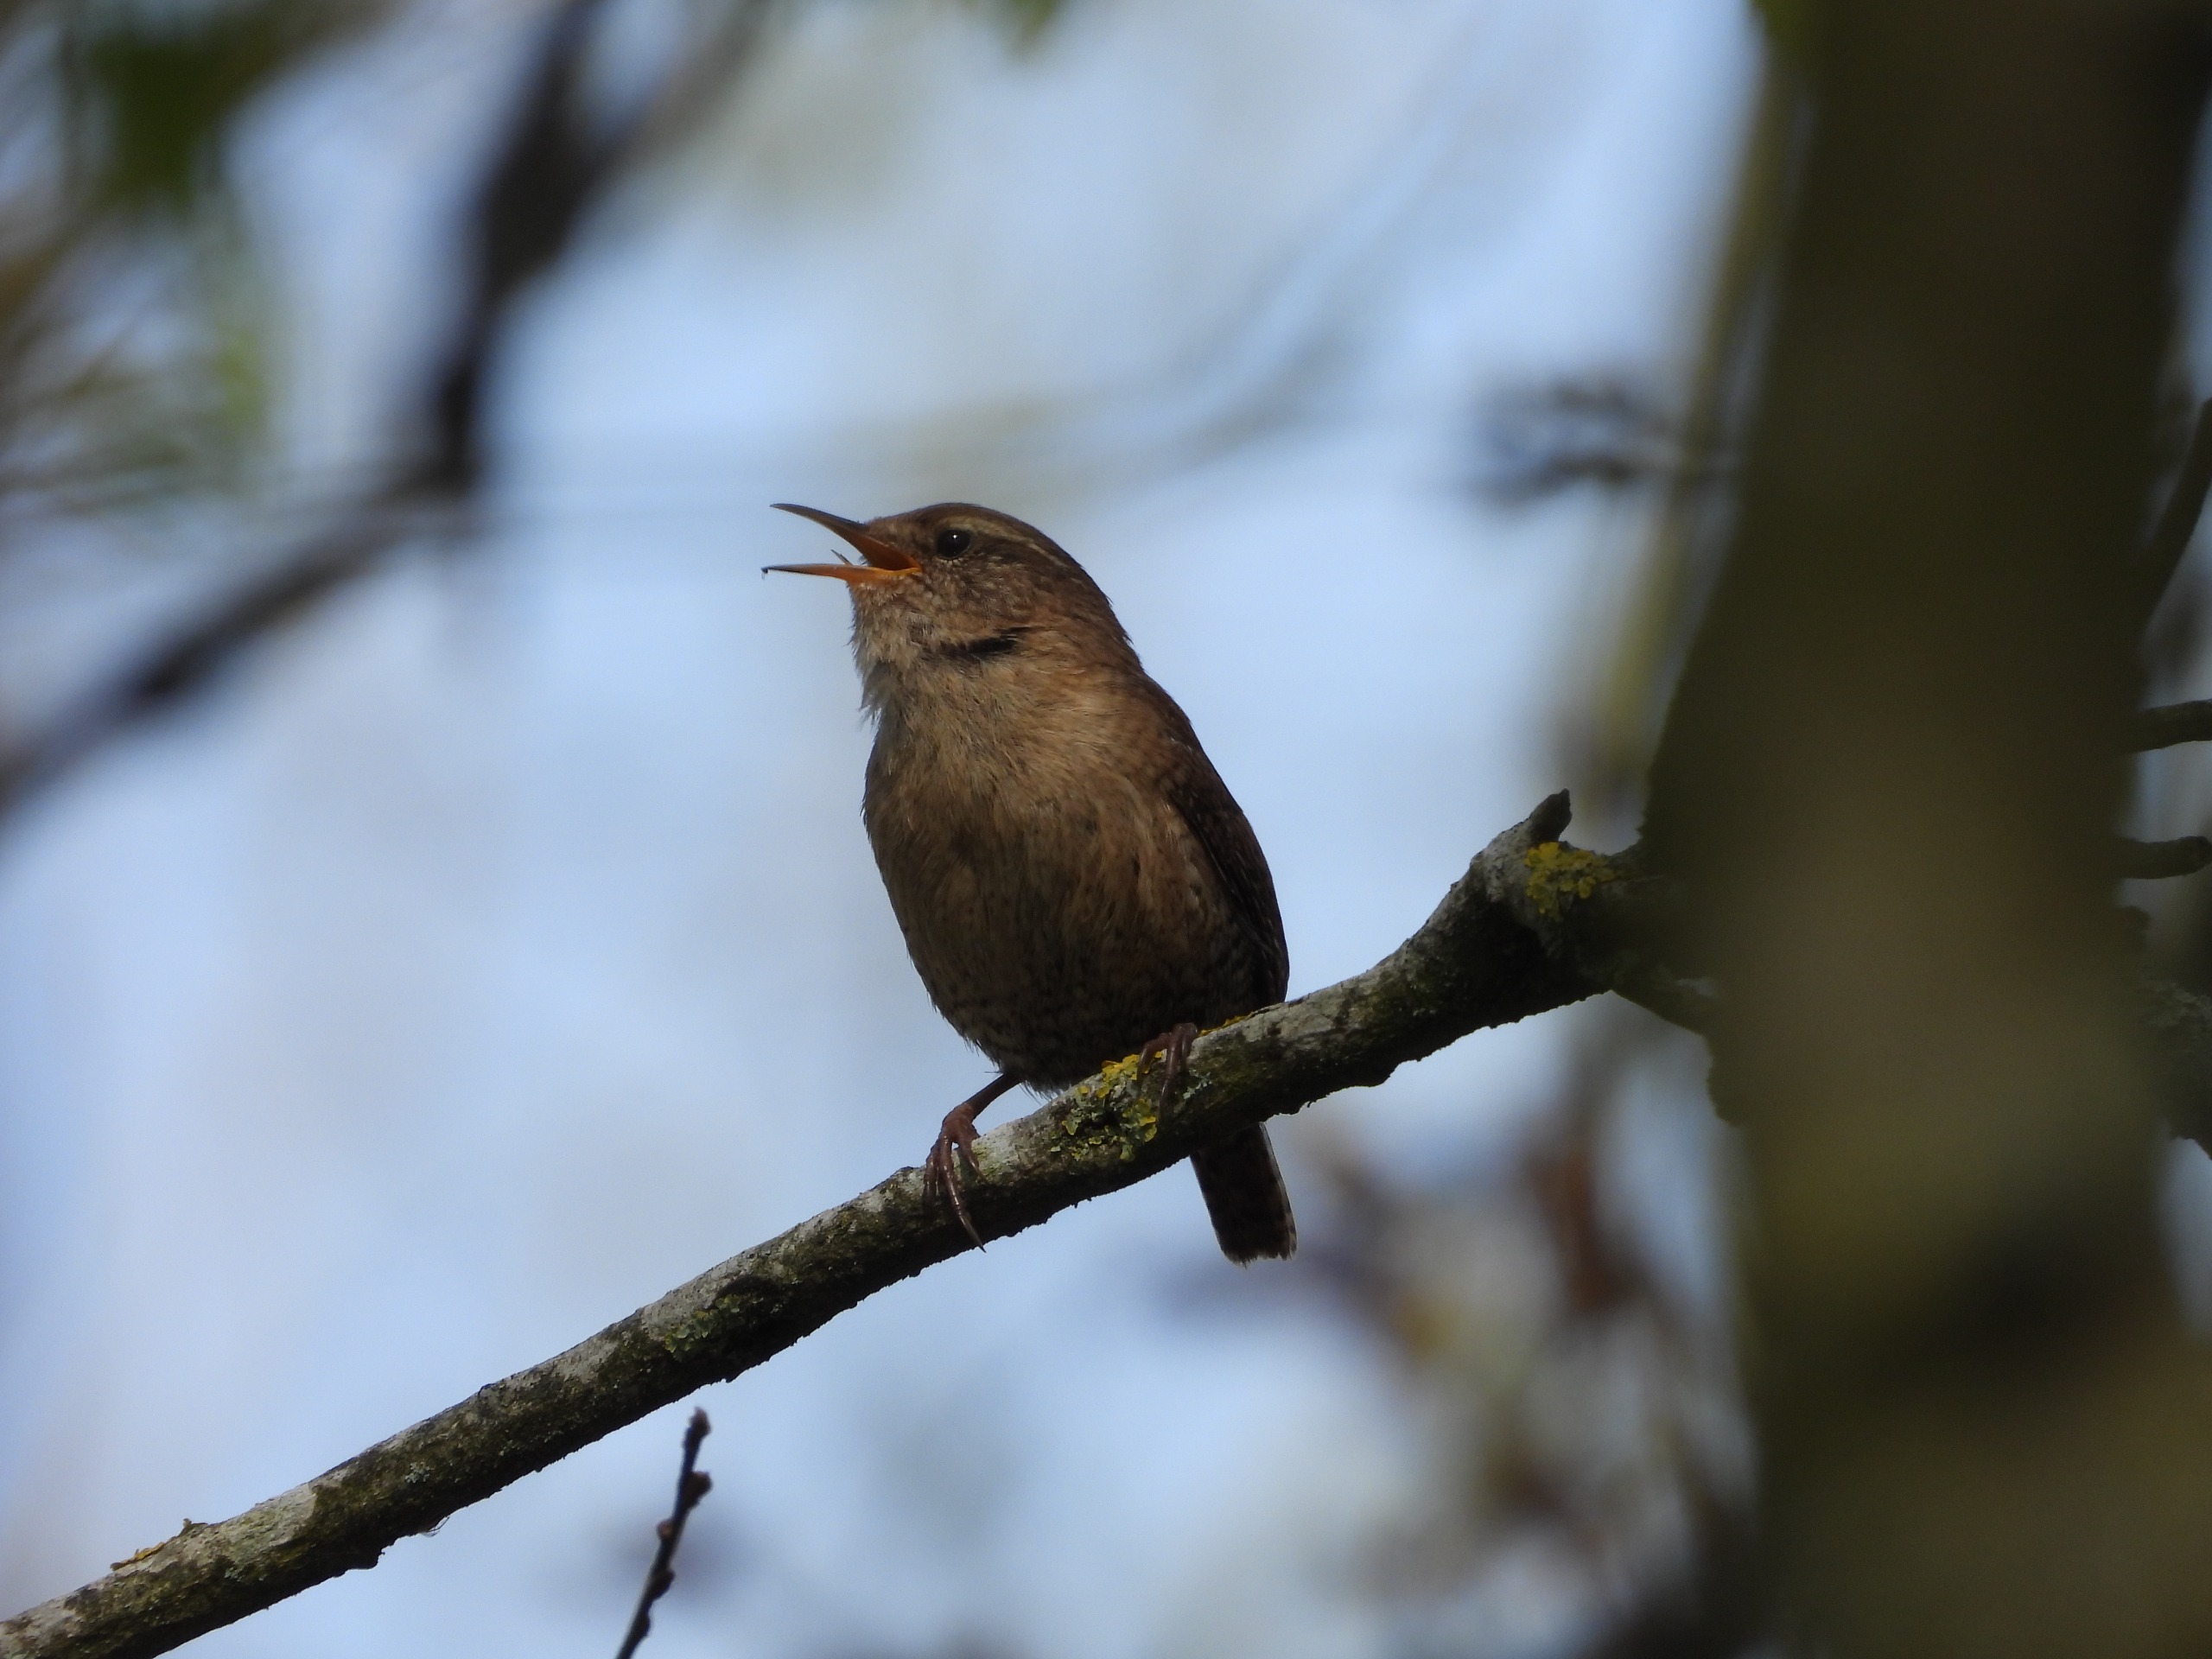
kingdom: Animalia
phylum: Chordata
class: Aves
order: Passeriformes
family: Troglodytidae
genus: Troglodytes
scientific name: Troglodytes troglodytes
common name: Gærdesmutte
